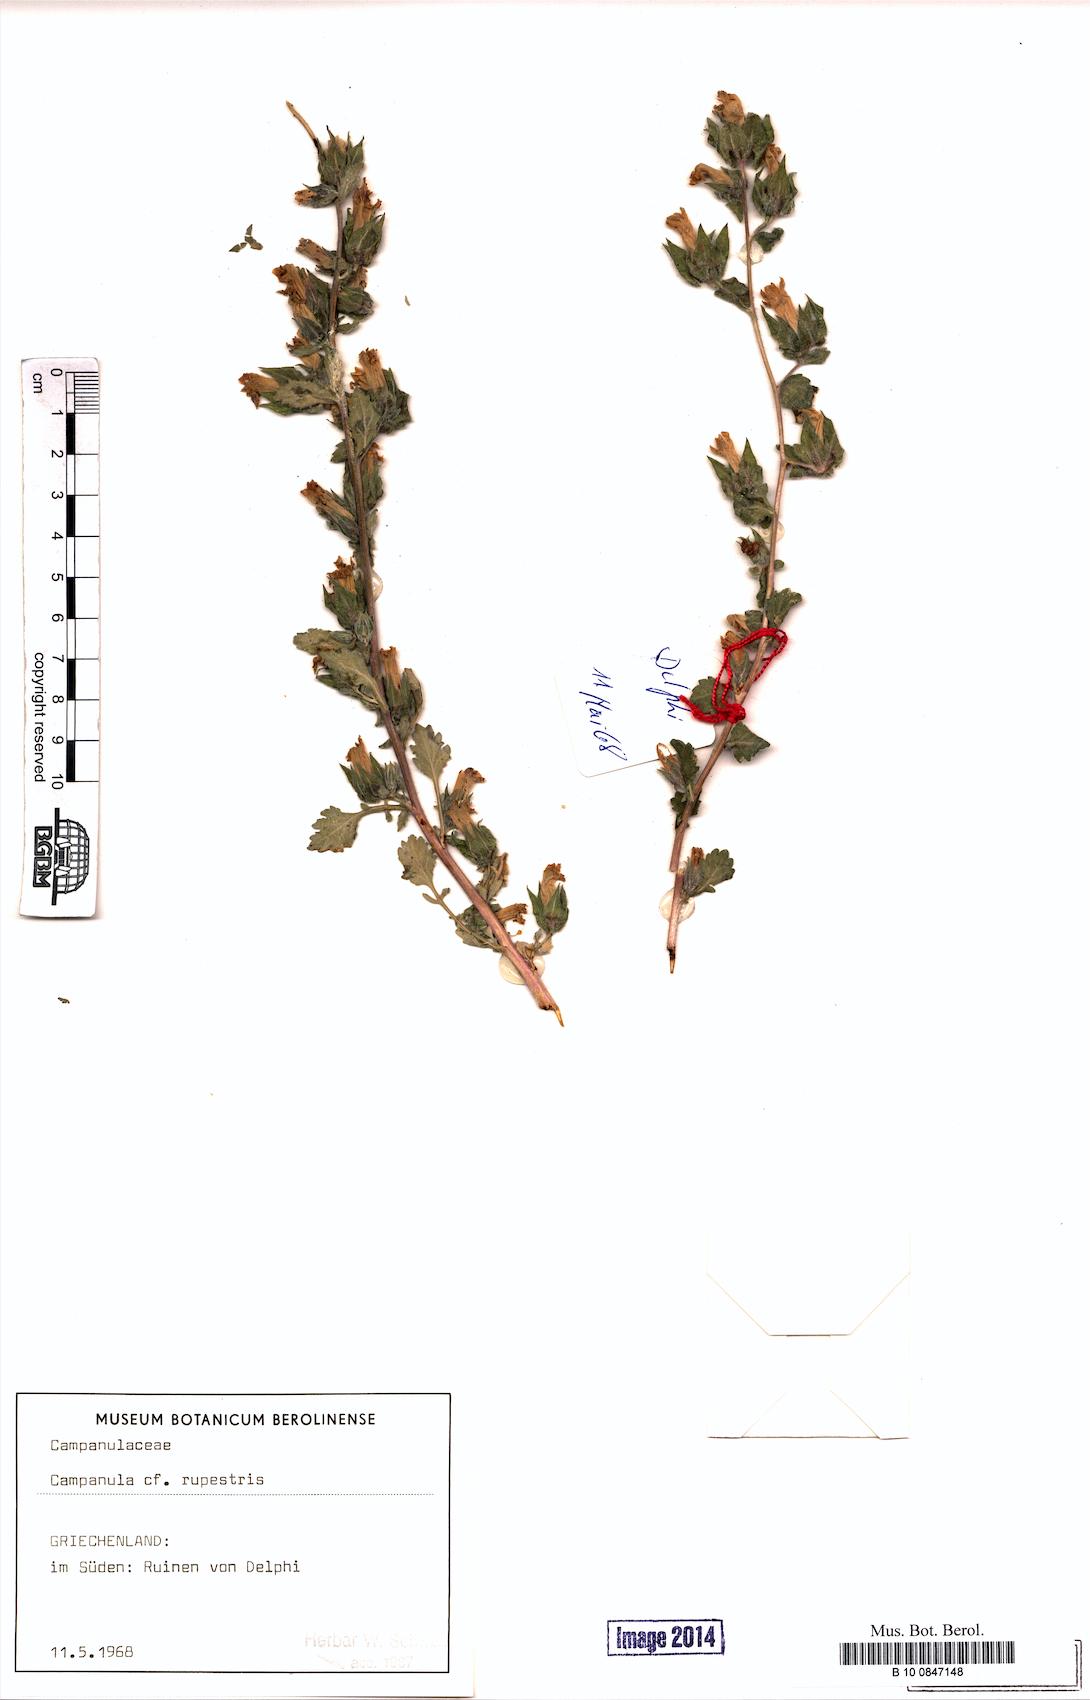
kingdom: Plantae
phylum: Tracheophyta
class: Magnoliopsida
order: Asterales
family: Campanulaceae
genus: Campanula
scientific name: Campanula rupestris
